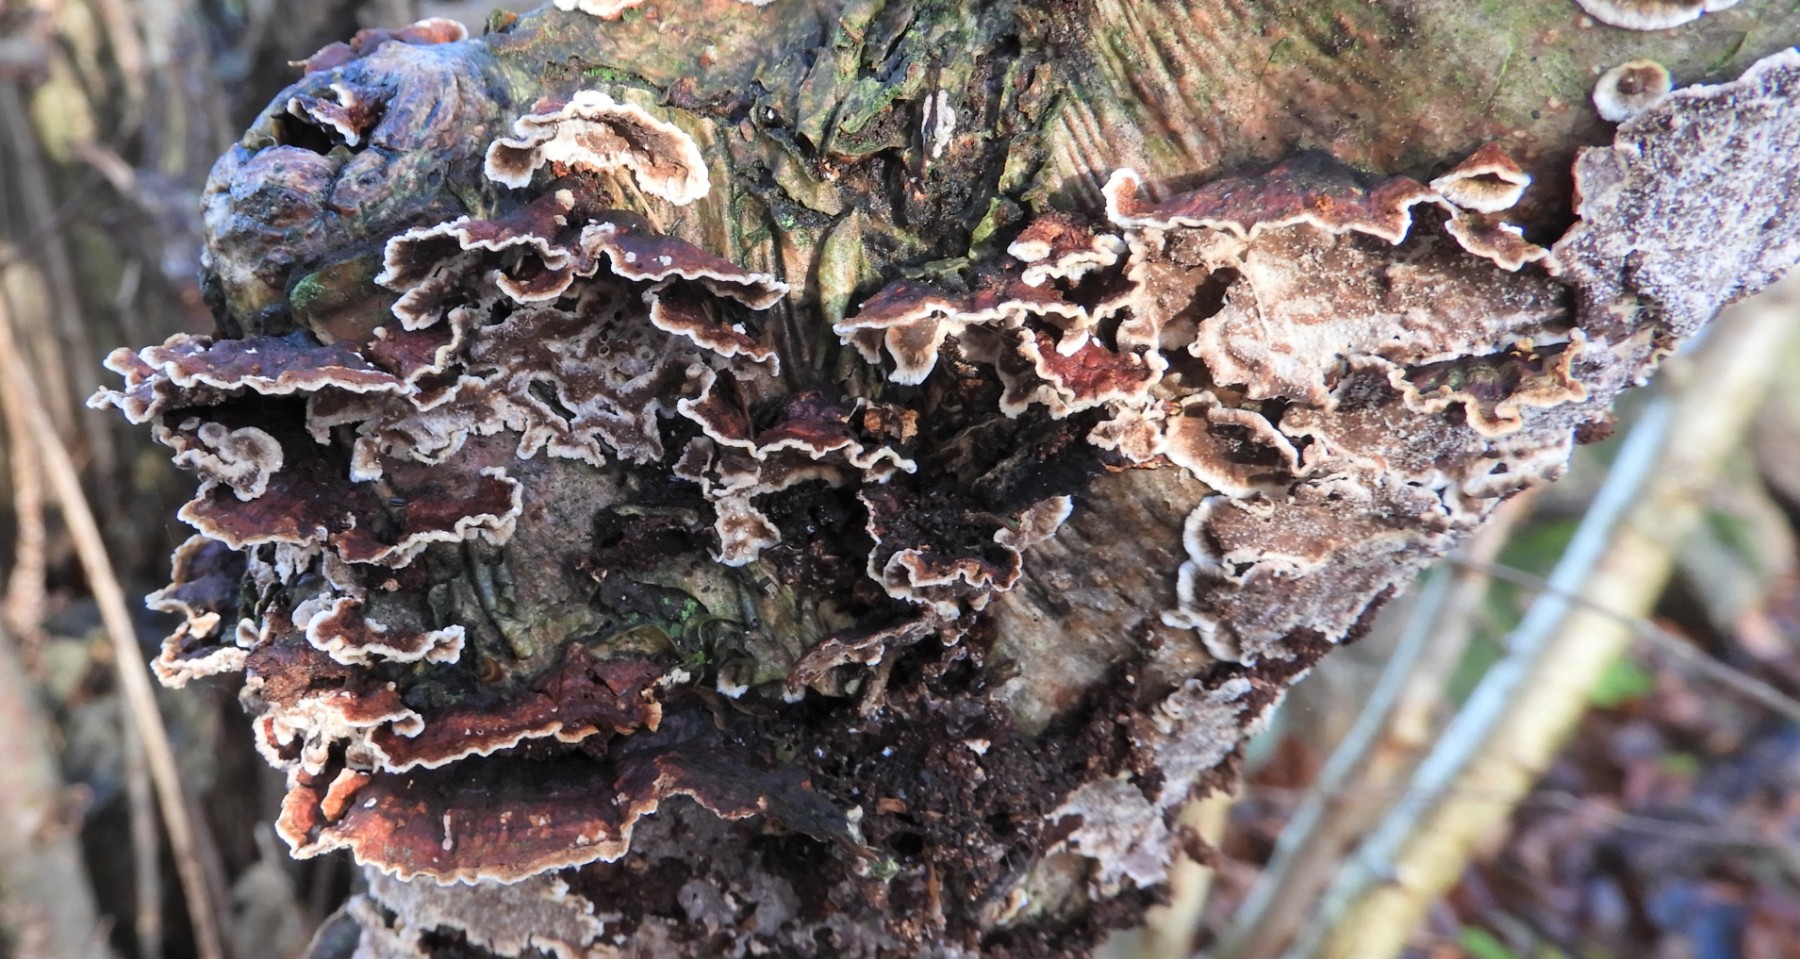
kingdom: Fungi
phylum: Basidiomycota
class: Agaricomycetes
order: Hymenochaetales
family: Hymenochaetaceae
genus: Hydnoporia
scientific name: Hydnoporia tabacina
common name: tobaksbrun ruslædersvamp
